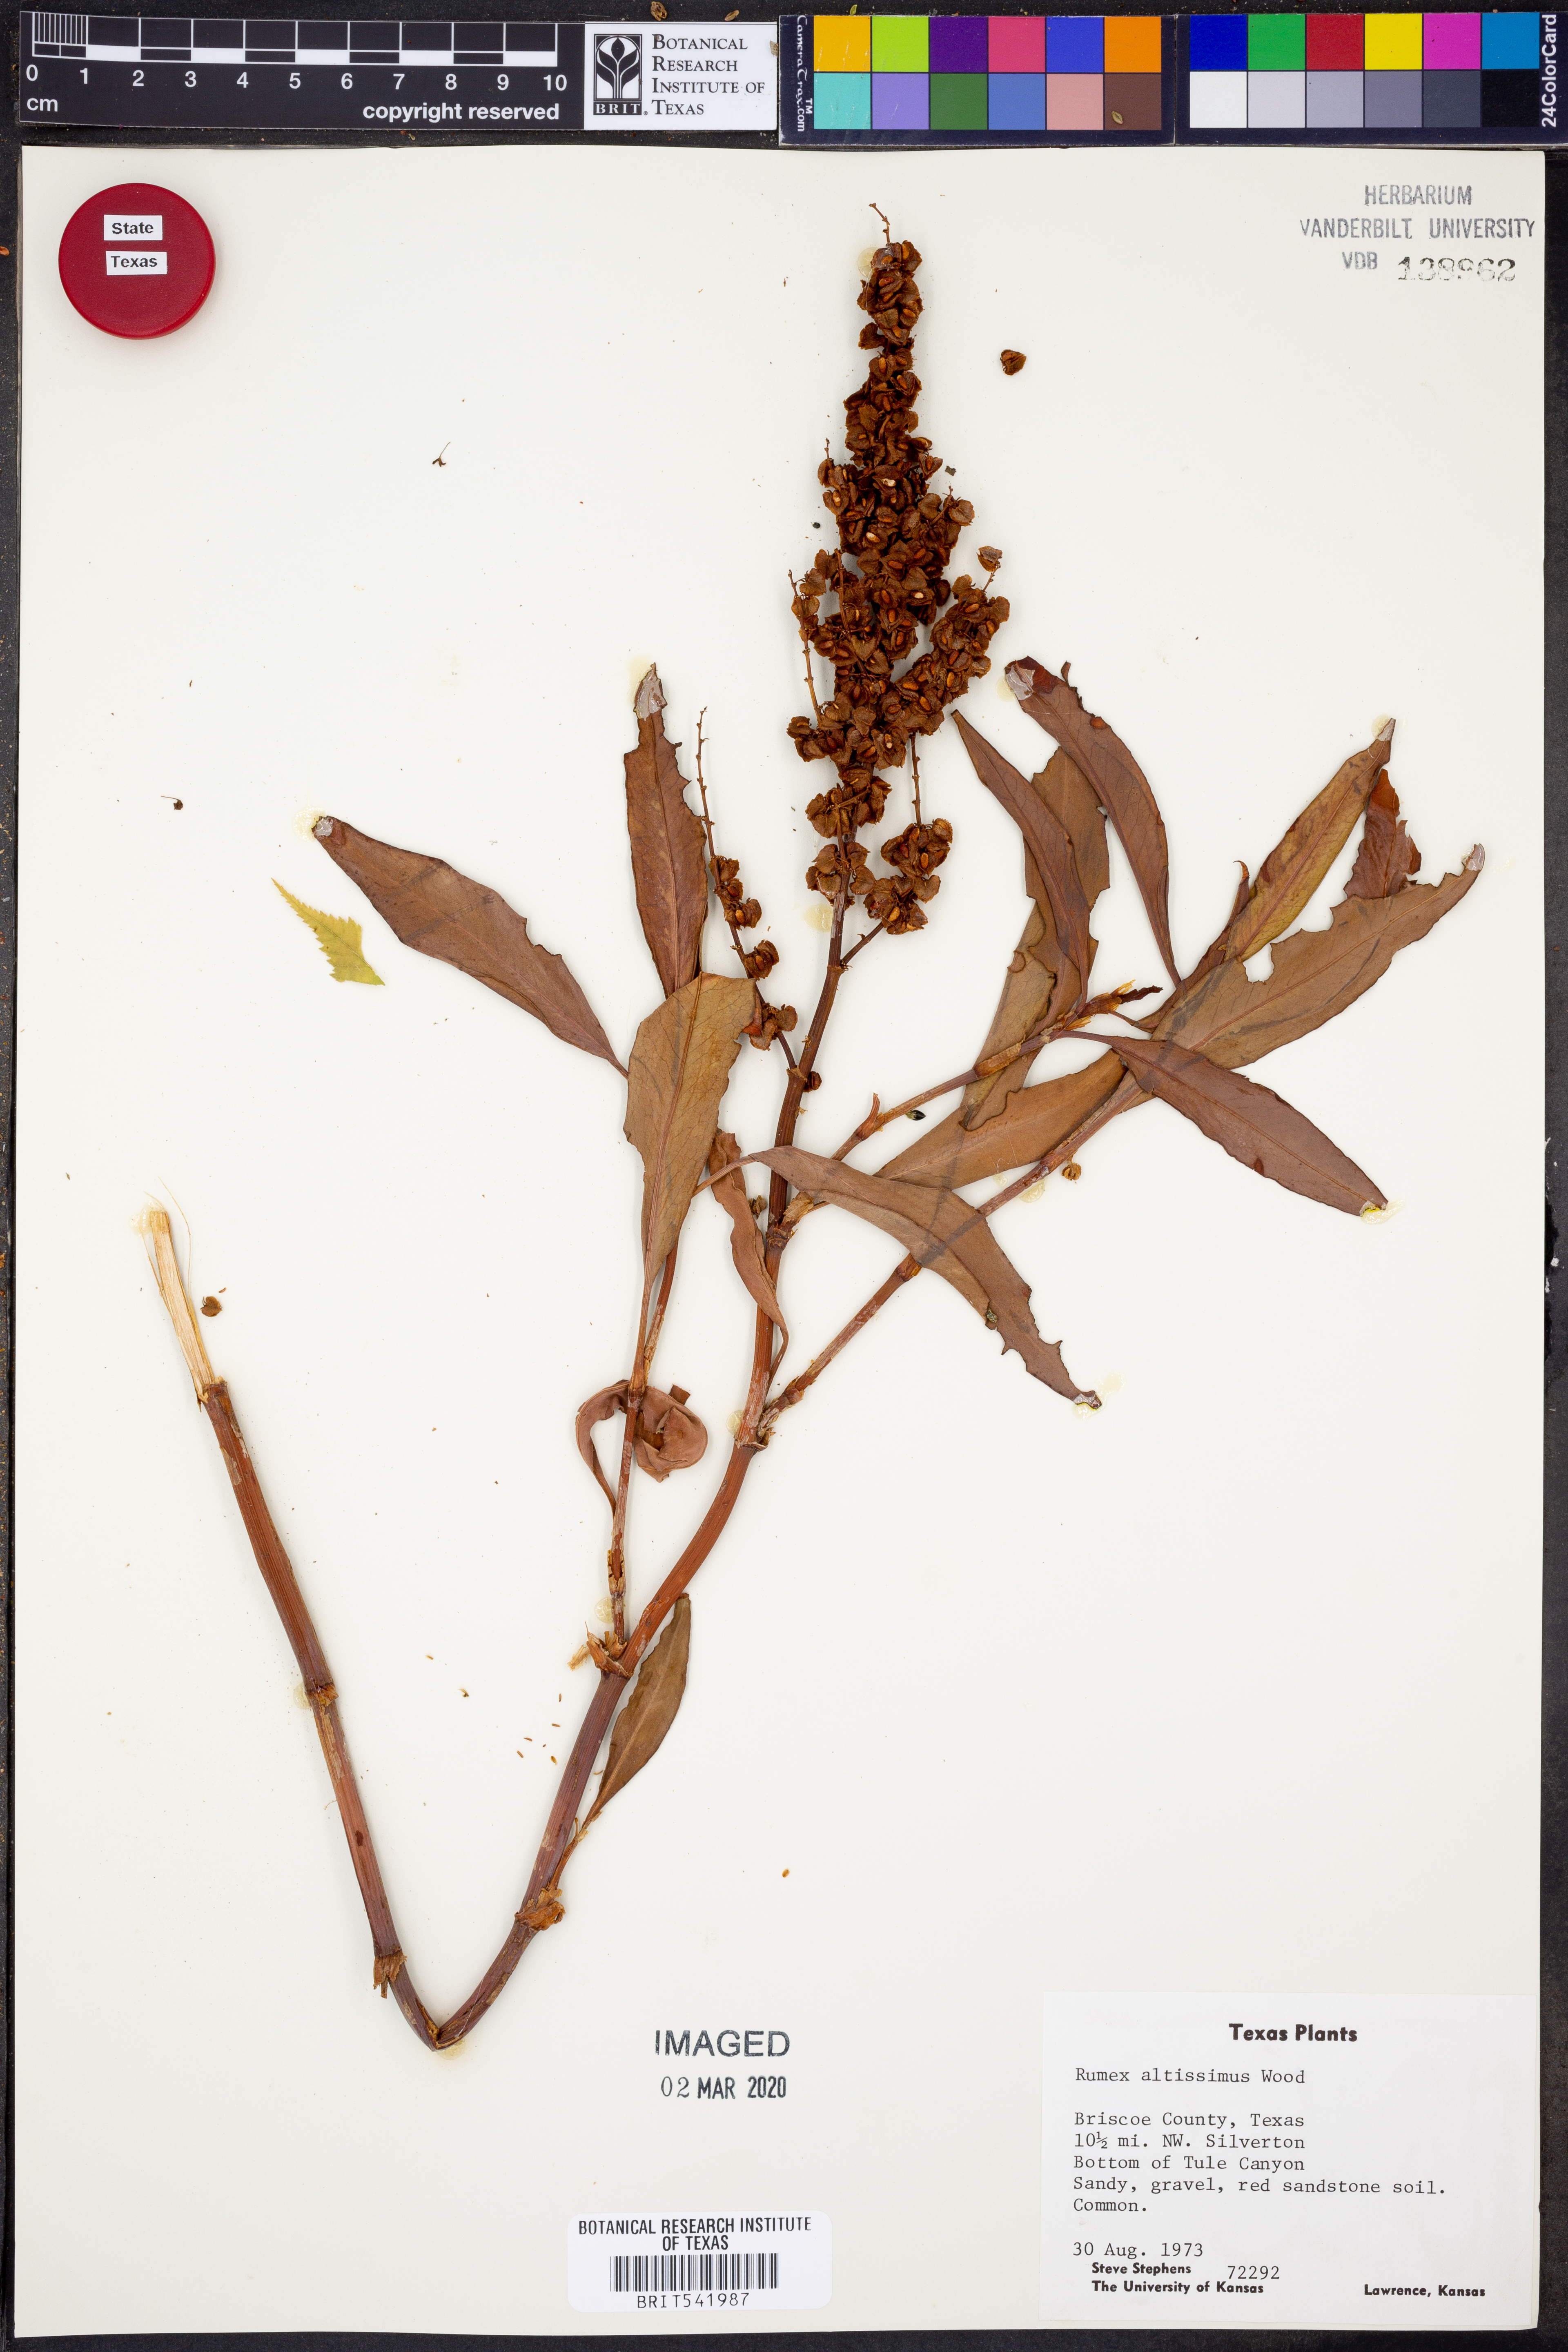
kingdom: Plantae
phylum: Tracheophyta
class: Magnoliopsida
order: Caryophyllales
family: Polygonaceae
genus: Rumex
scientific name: Rumex altissimus
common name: Smooth dock
